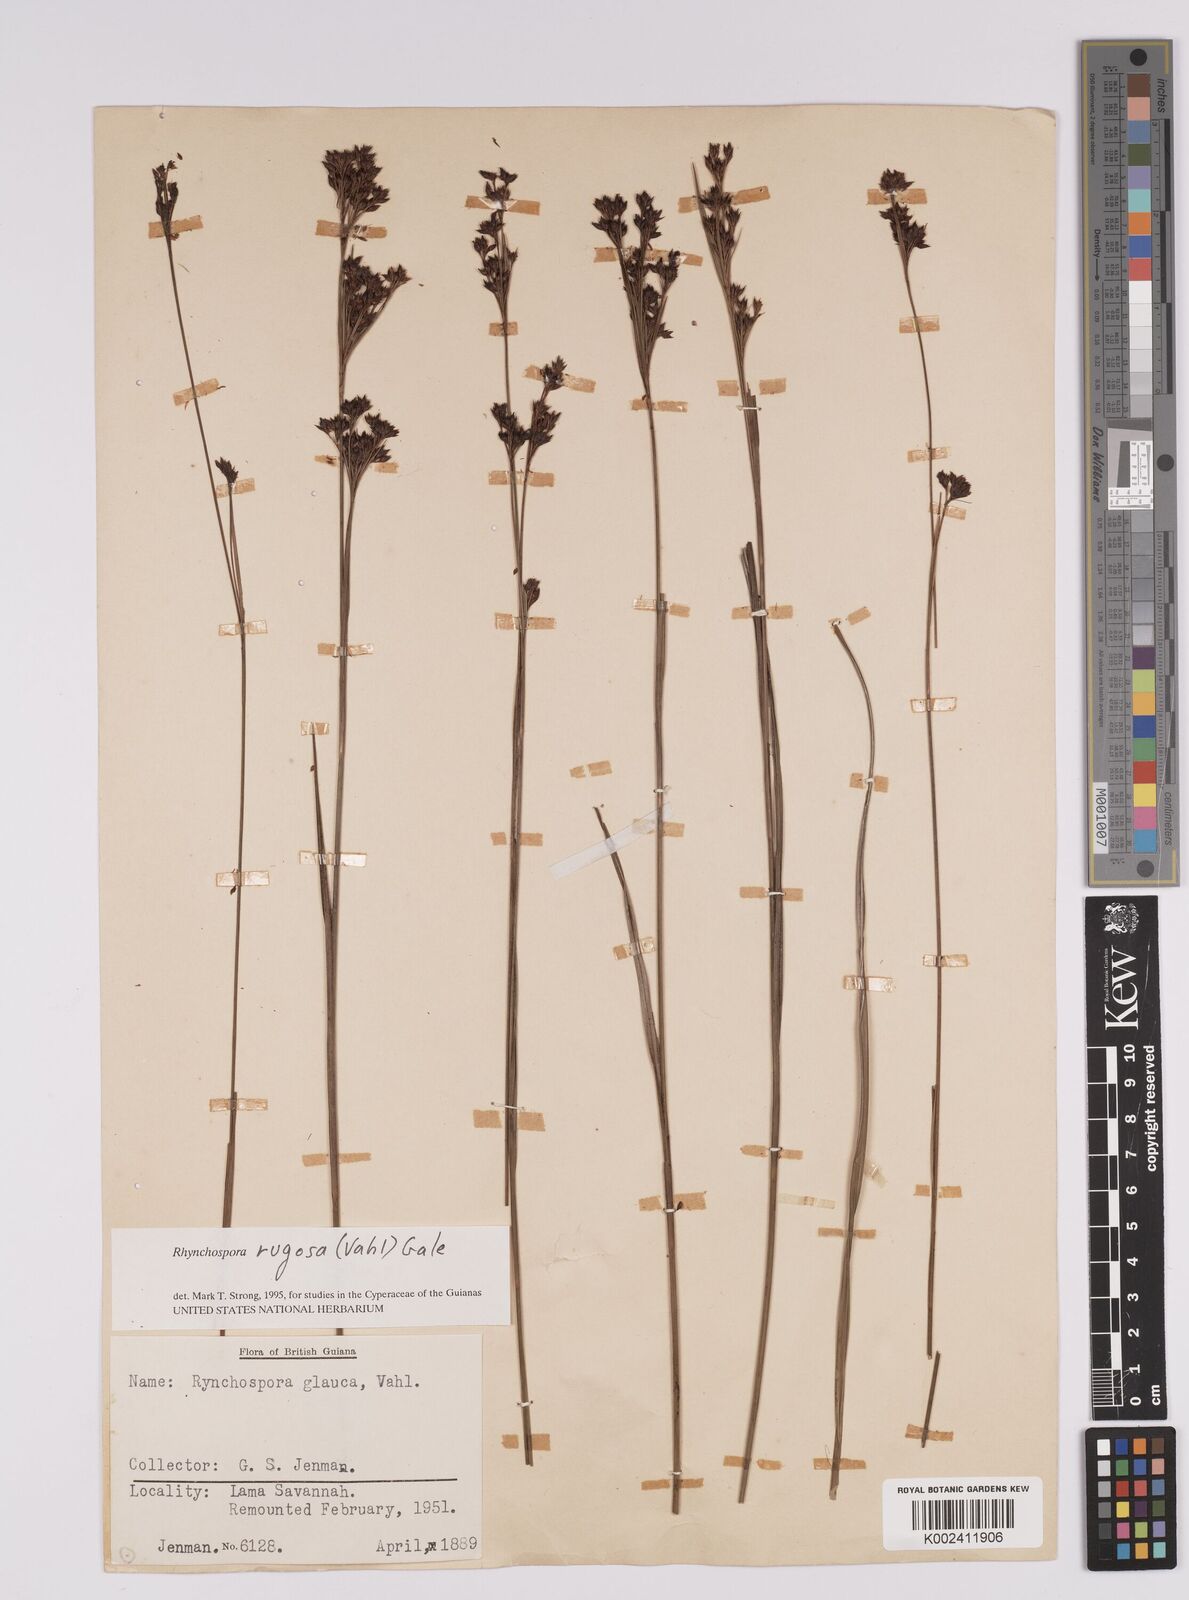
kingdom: Plantae
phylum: Tracheophyta
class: Liliopsida
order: Poales
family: Cyperaceae
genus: Rhynchospora
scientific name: Rhynchospora rugosa
